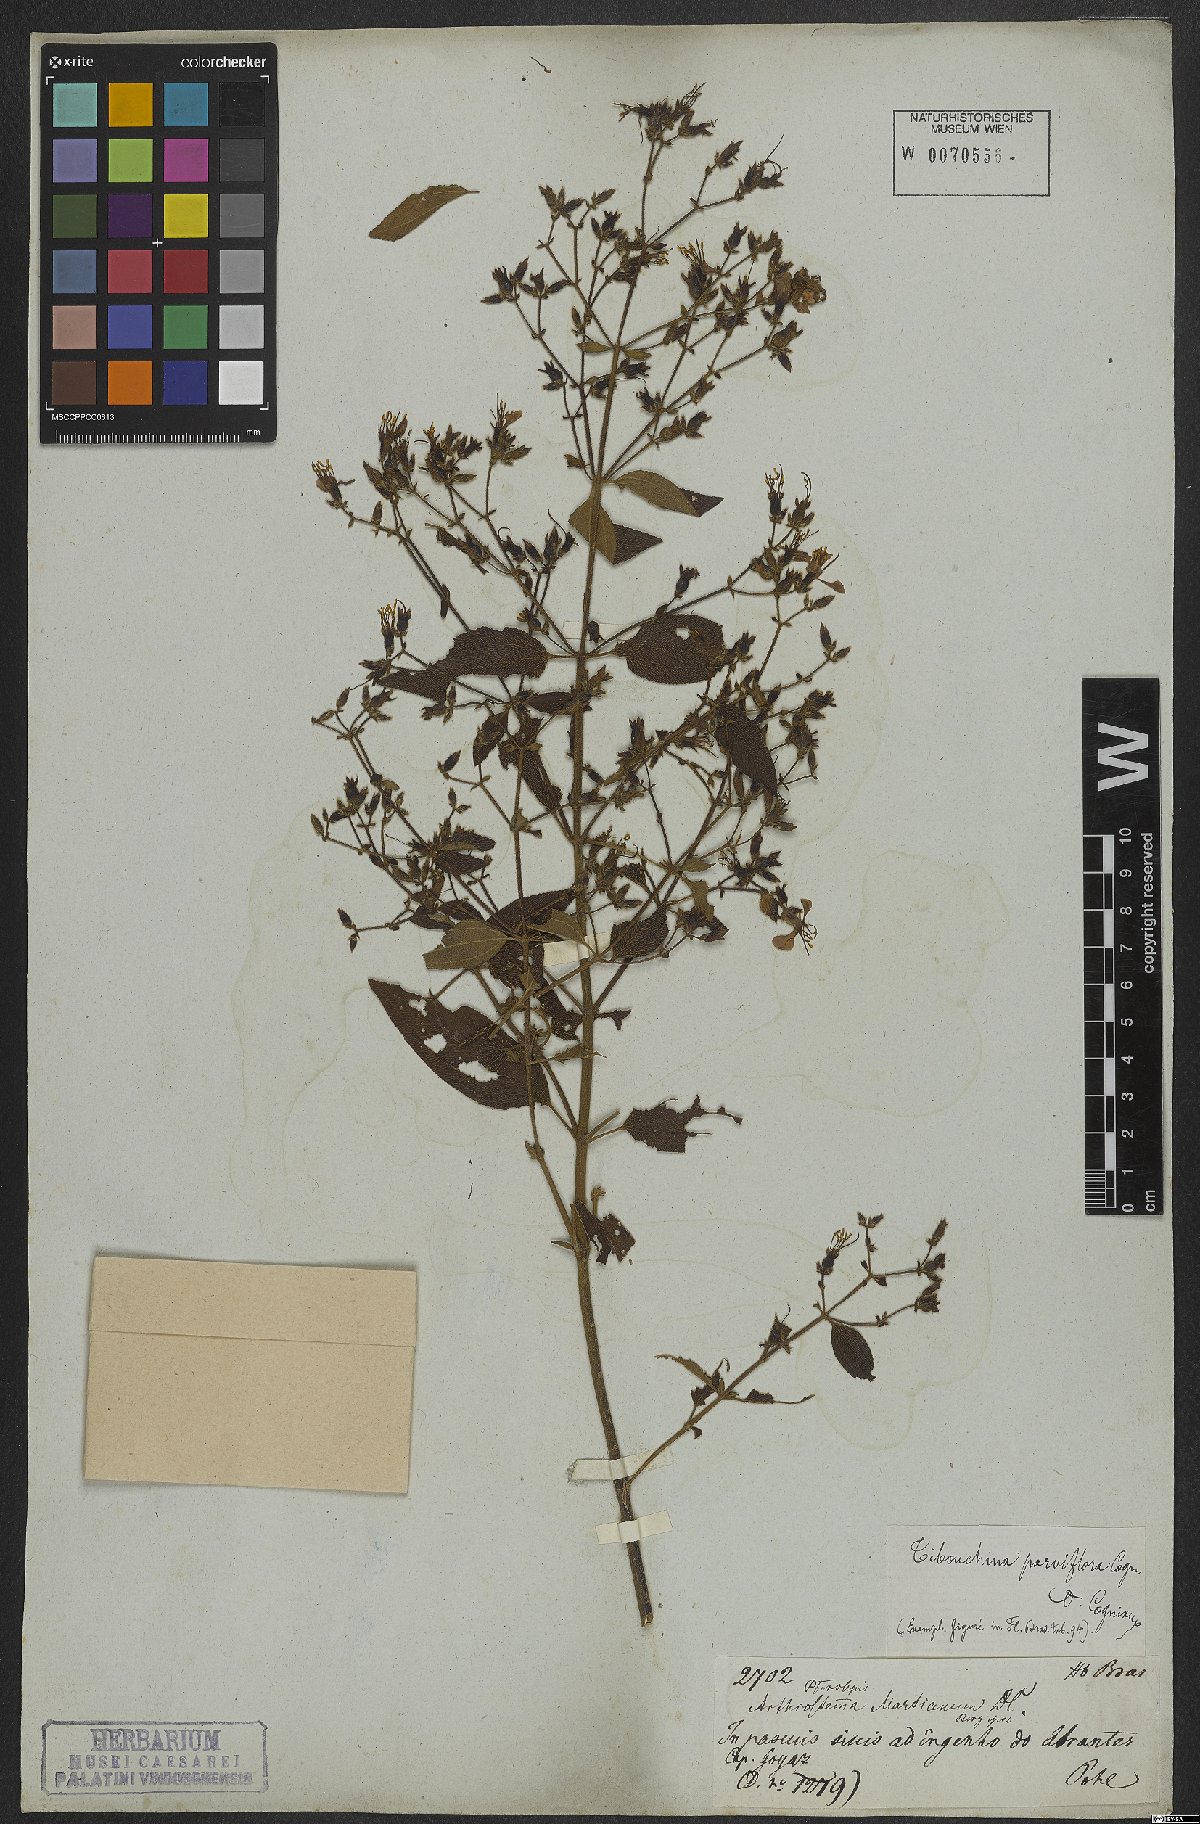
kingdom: Plantae
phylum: Tracheophyta
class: Magnoliopsida
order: Myrtales
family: Melastomataceae
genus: Chaetogastra
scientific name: Chaetogastra parviflora
